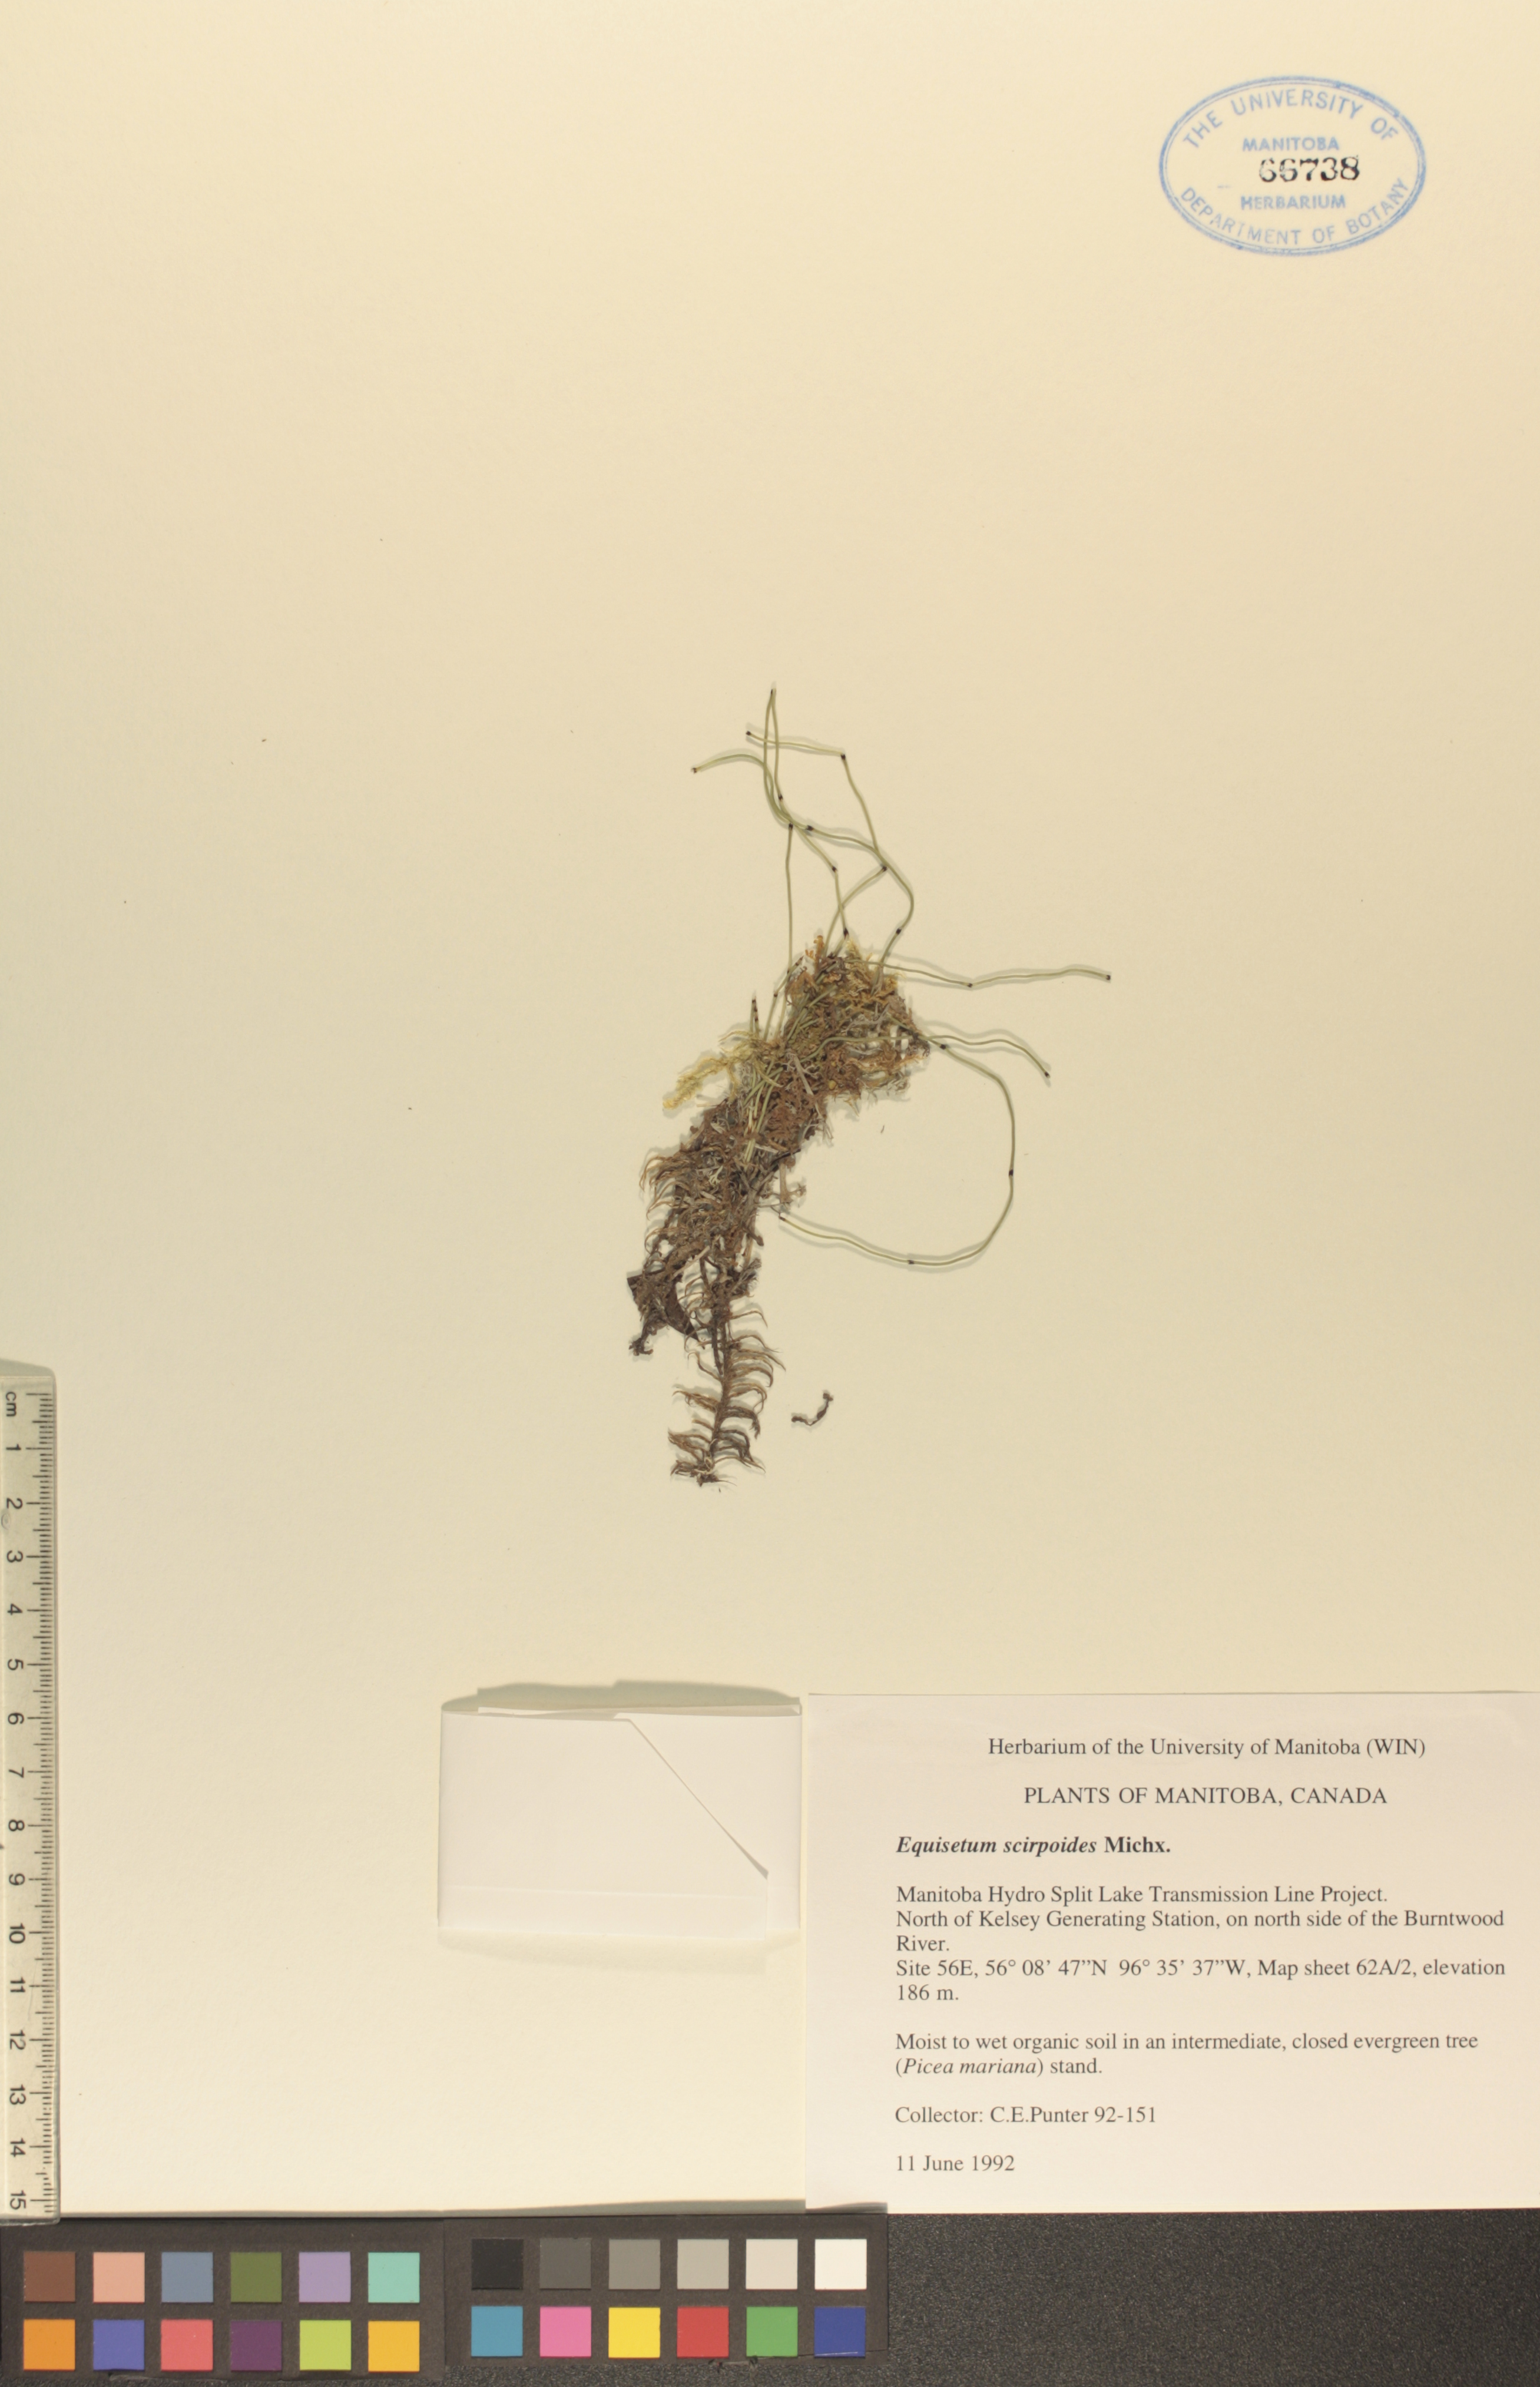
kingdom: Plantae
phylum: Tracheophyta
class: Polypodiopsida
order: Equisetales
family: Equisetaceae
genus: Equisetum
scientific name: Equisetum scirpoides
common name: Delicate horsetail
